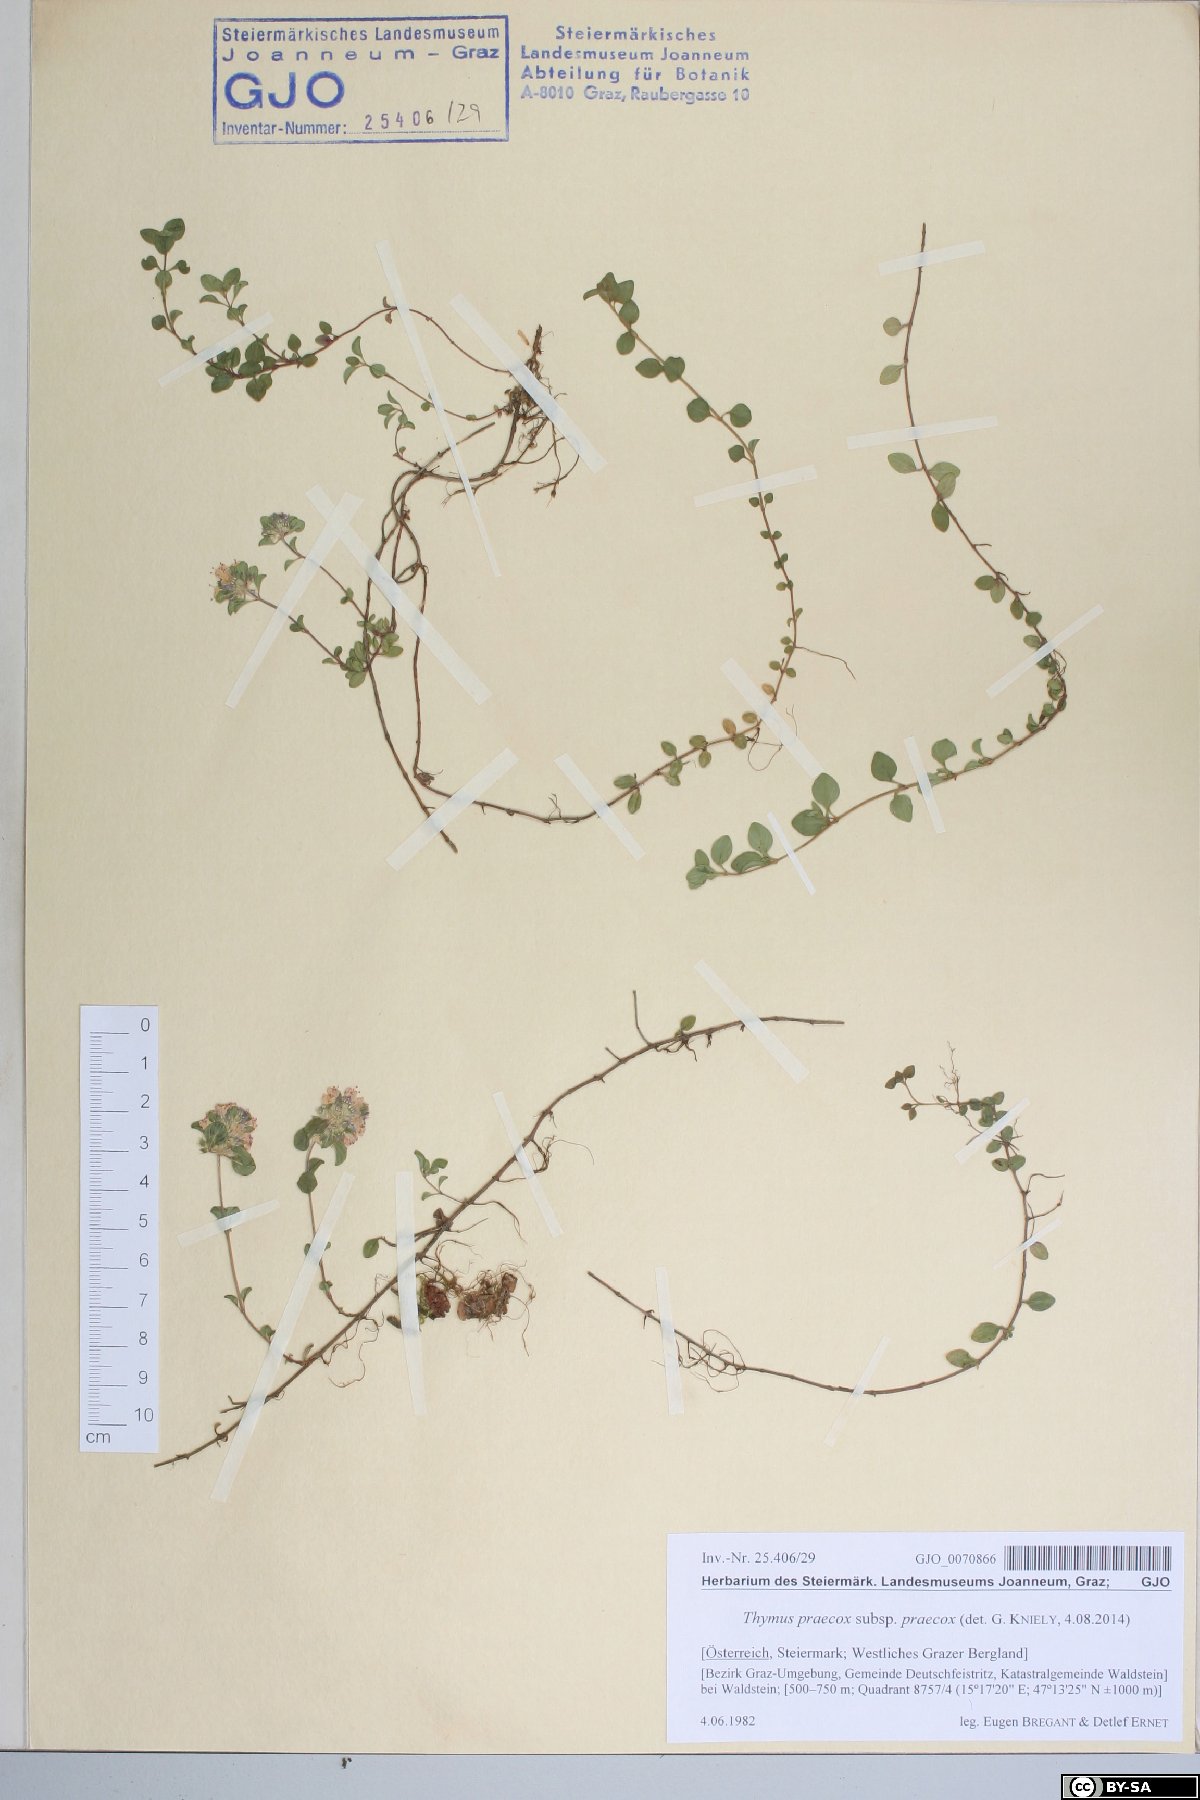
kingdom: Plantae
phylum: Tracheophyta
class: Magnoliopsida
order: Lamiales
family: Lamiaceae
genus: Thymus
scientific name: Thymus praecox
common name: Wild thyme
